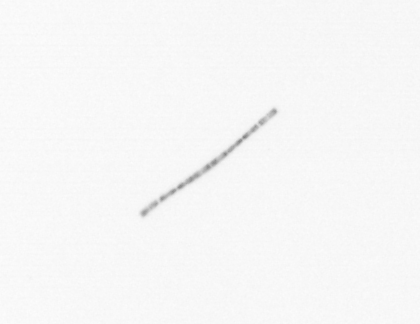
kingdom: Chromista
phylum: Ochrophyta
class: Bacillariophyceae
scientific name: Bacillariophyceae
